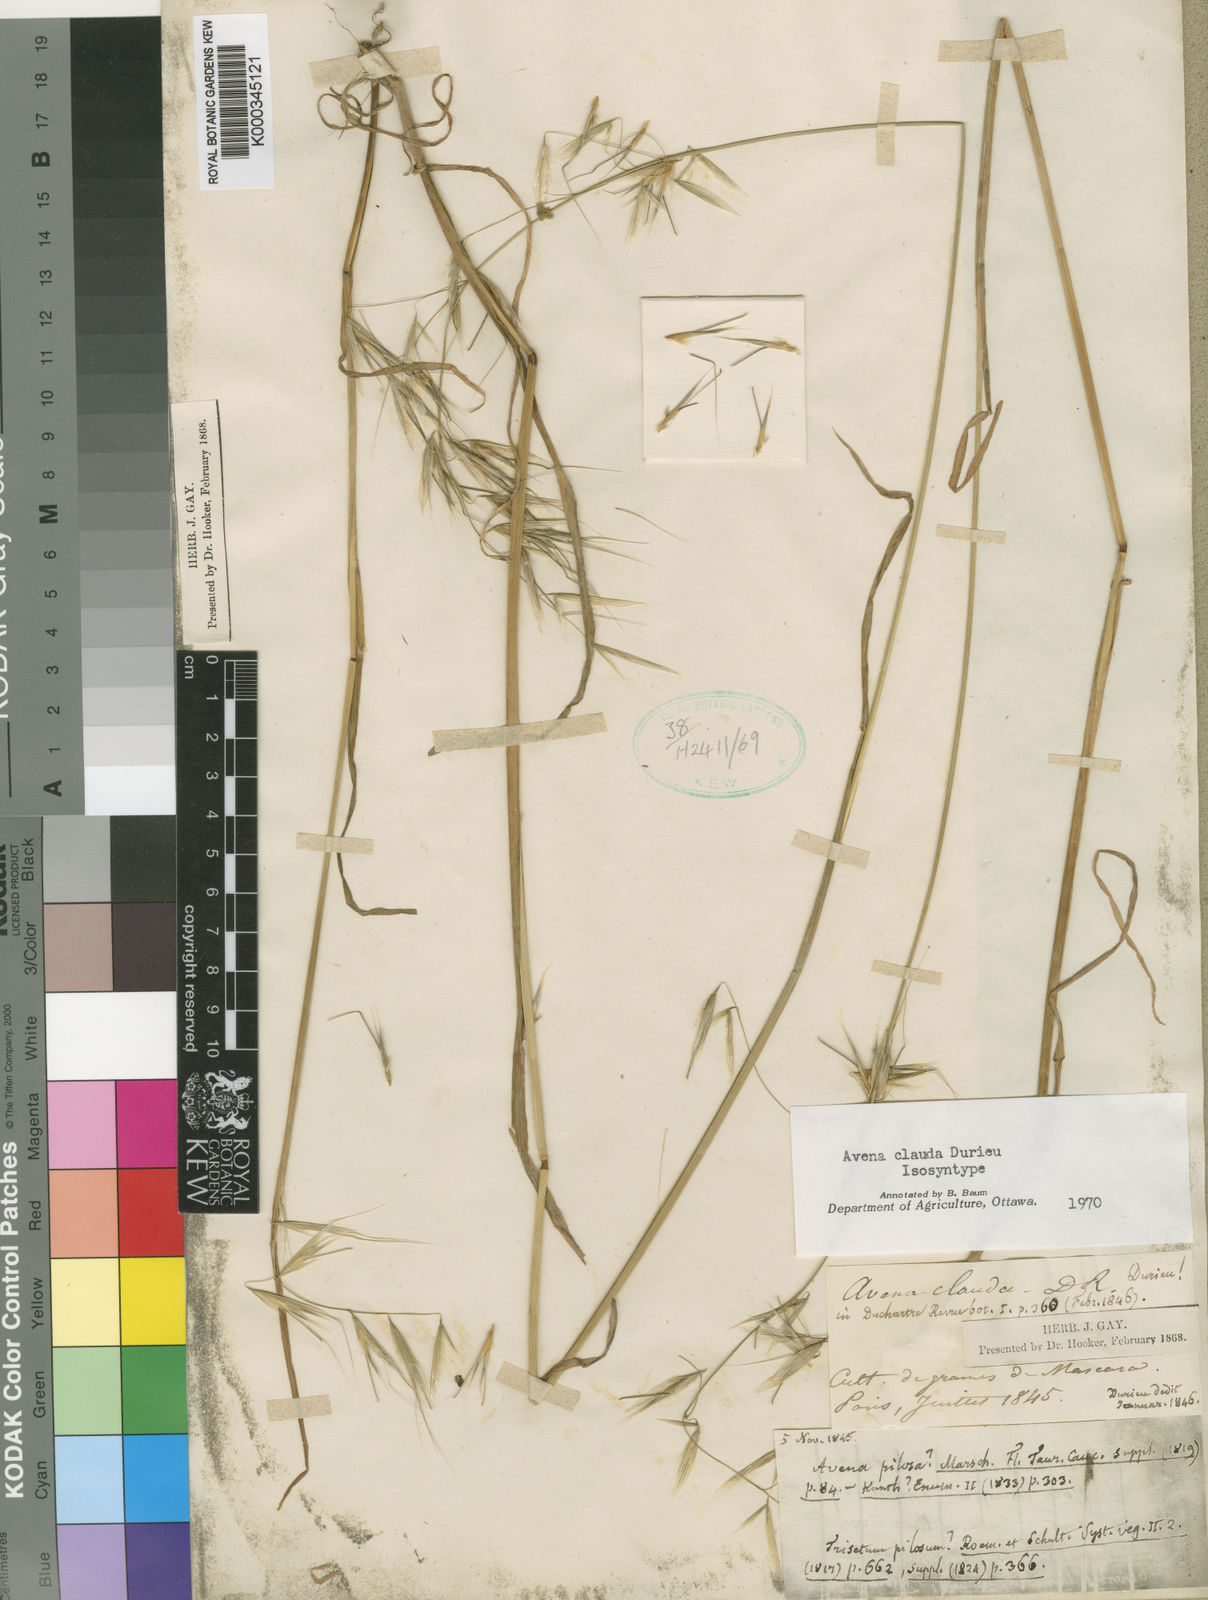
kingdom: Plantae
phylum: Tracheophyta
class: Liliopsida
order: Poales
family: Poaceae
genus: Avena
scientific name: Avena clauda
